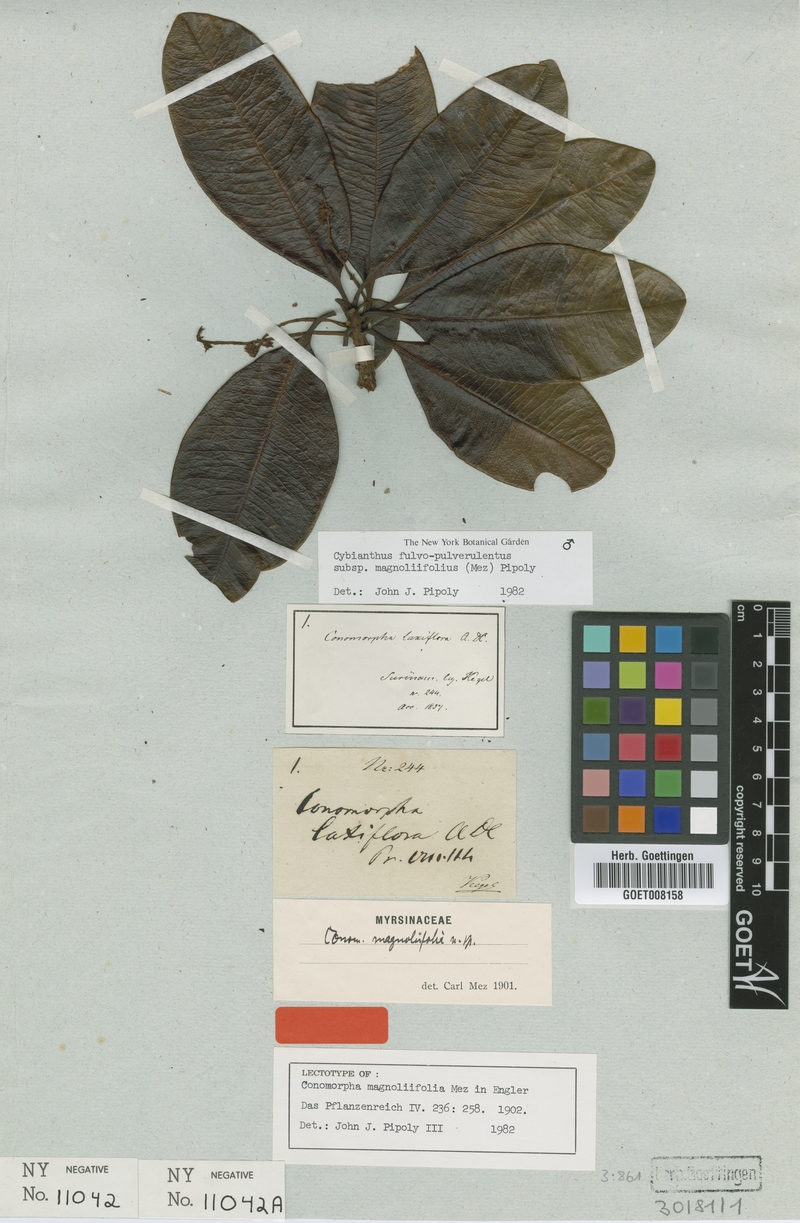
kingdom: Plantae
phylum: Tracheophyta
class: Magnoliopsida
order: Ericales
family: Primulaceae
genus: Cybianthus
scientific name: Cybianthus fulvopulverulentus
